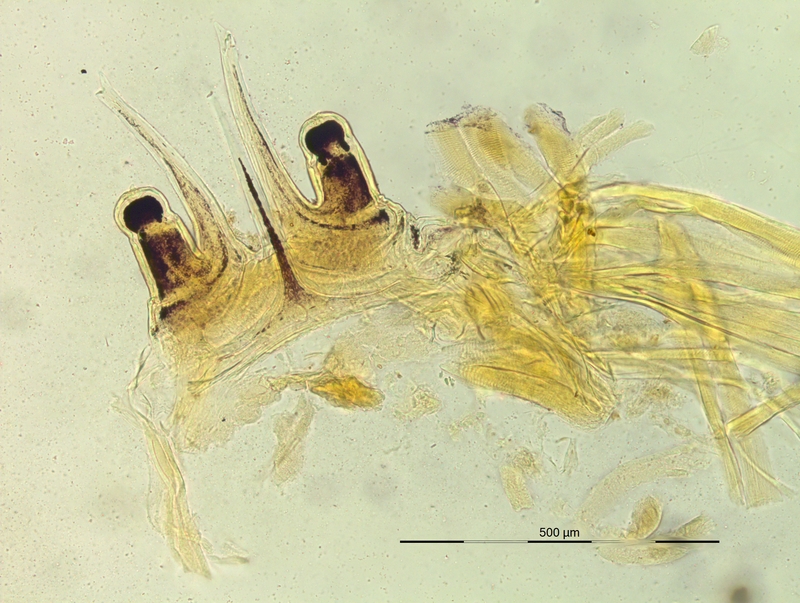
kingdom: Animalia
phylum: Arthropoda
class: Diplopoda
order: Chordeumatida
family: Craspedosomatidae
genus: Rhymogona
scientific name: Rhymogona wehrana
